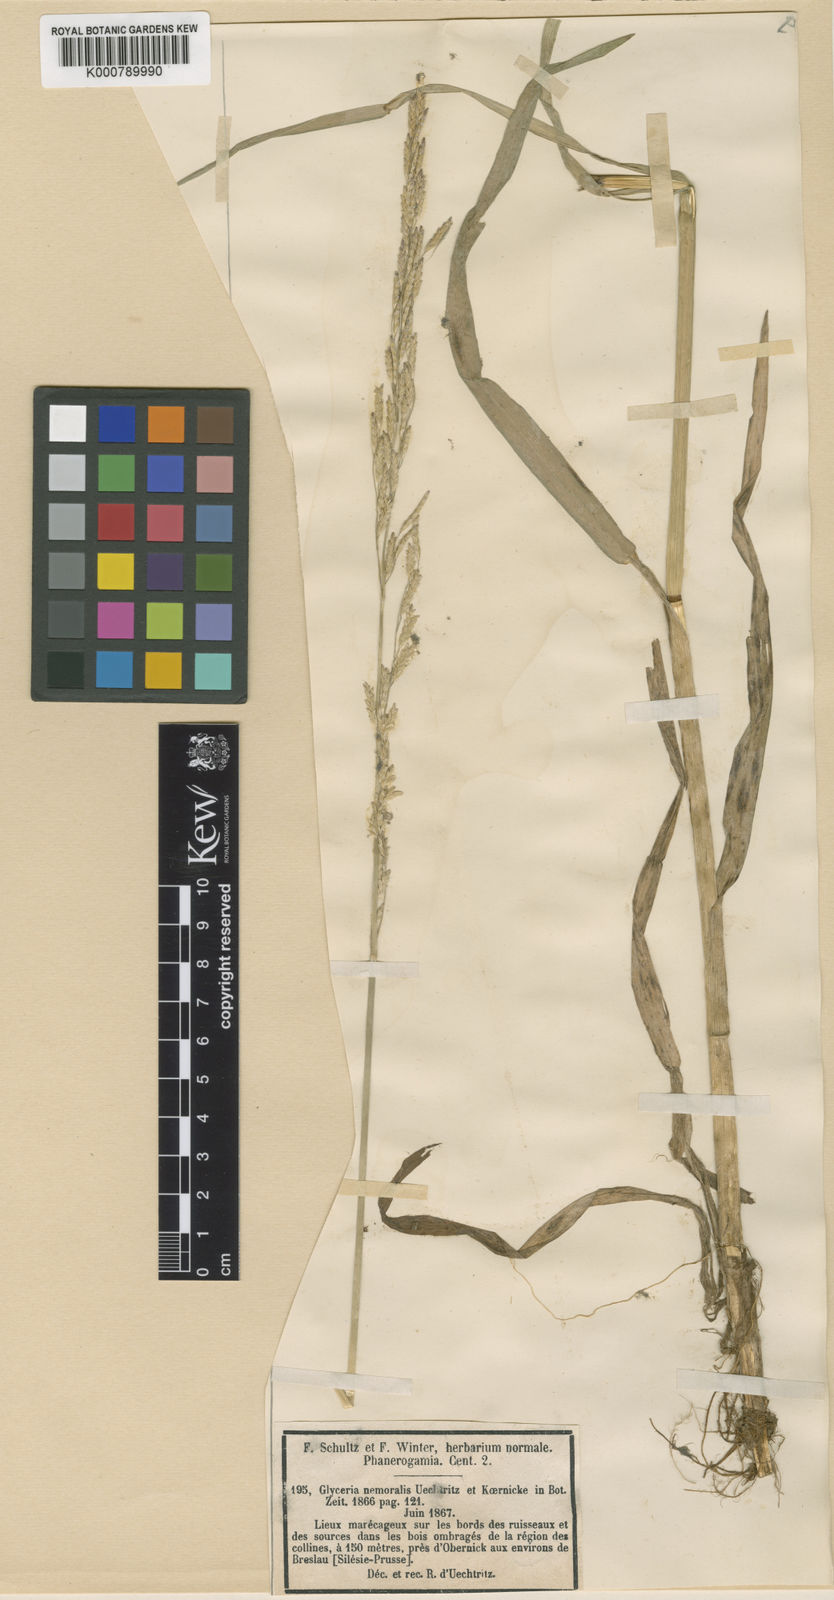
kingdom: Plantae
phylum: Tracheophyta
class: Liliopsida
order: Poales
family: Poaceae
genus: Glyceria
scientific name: Glyceria
